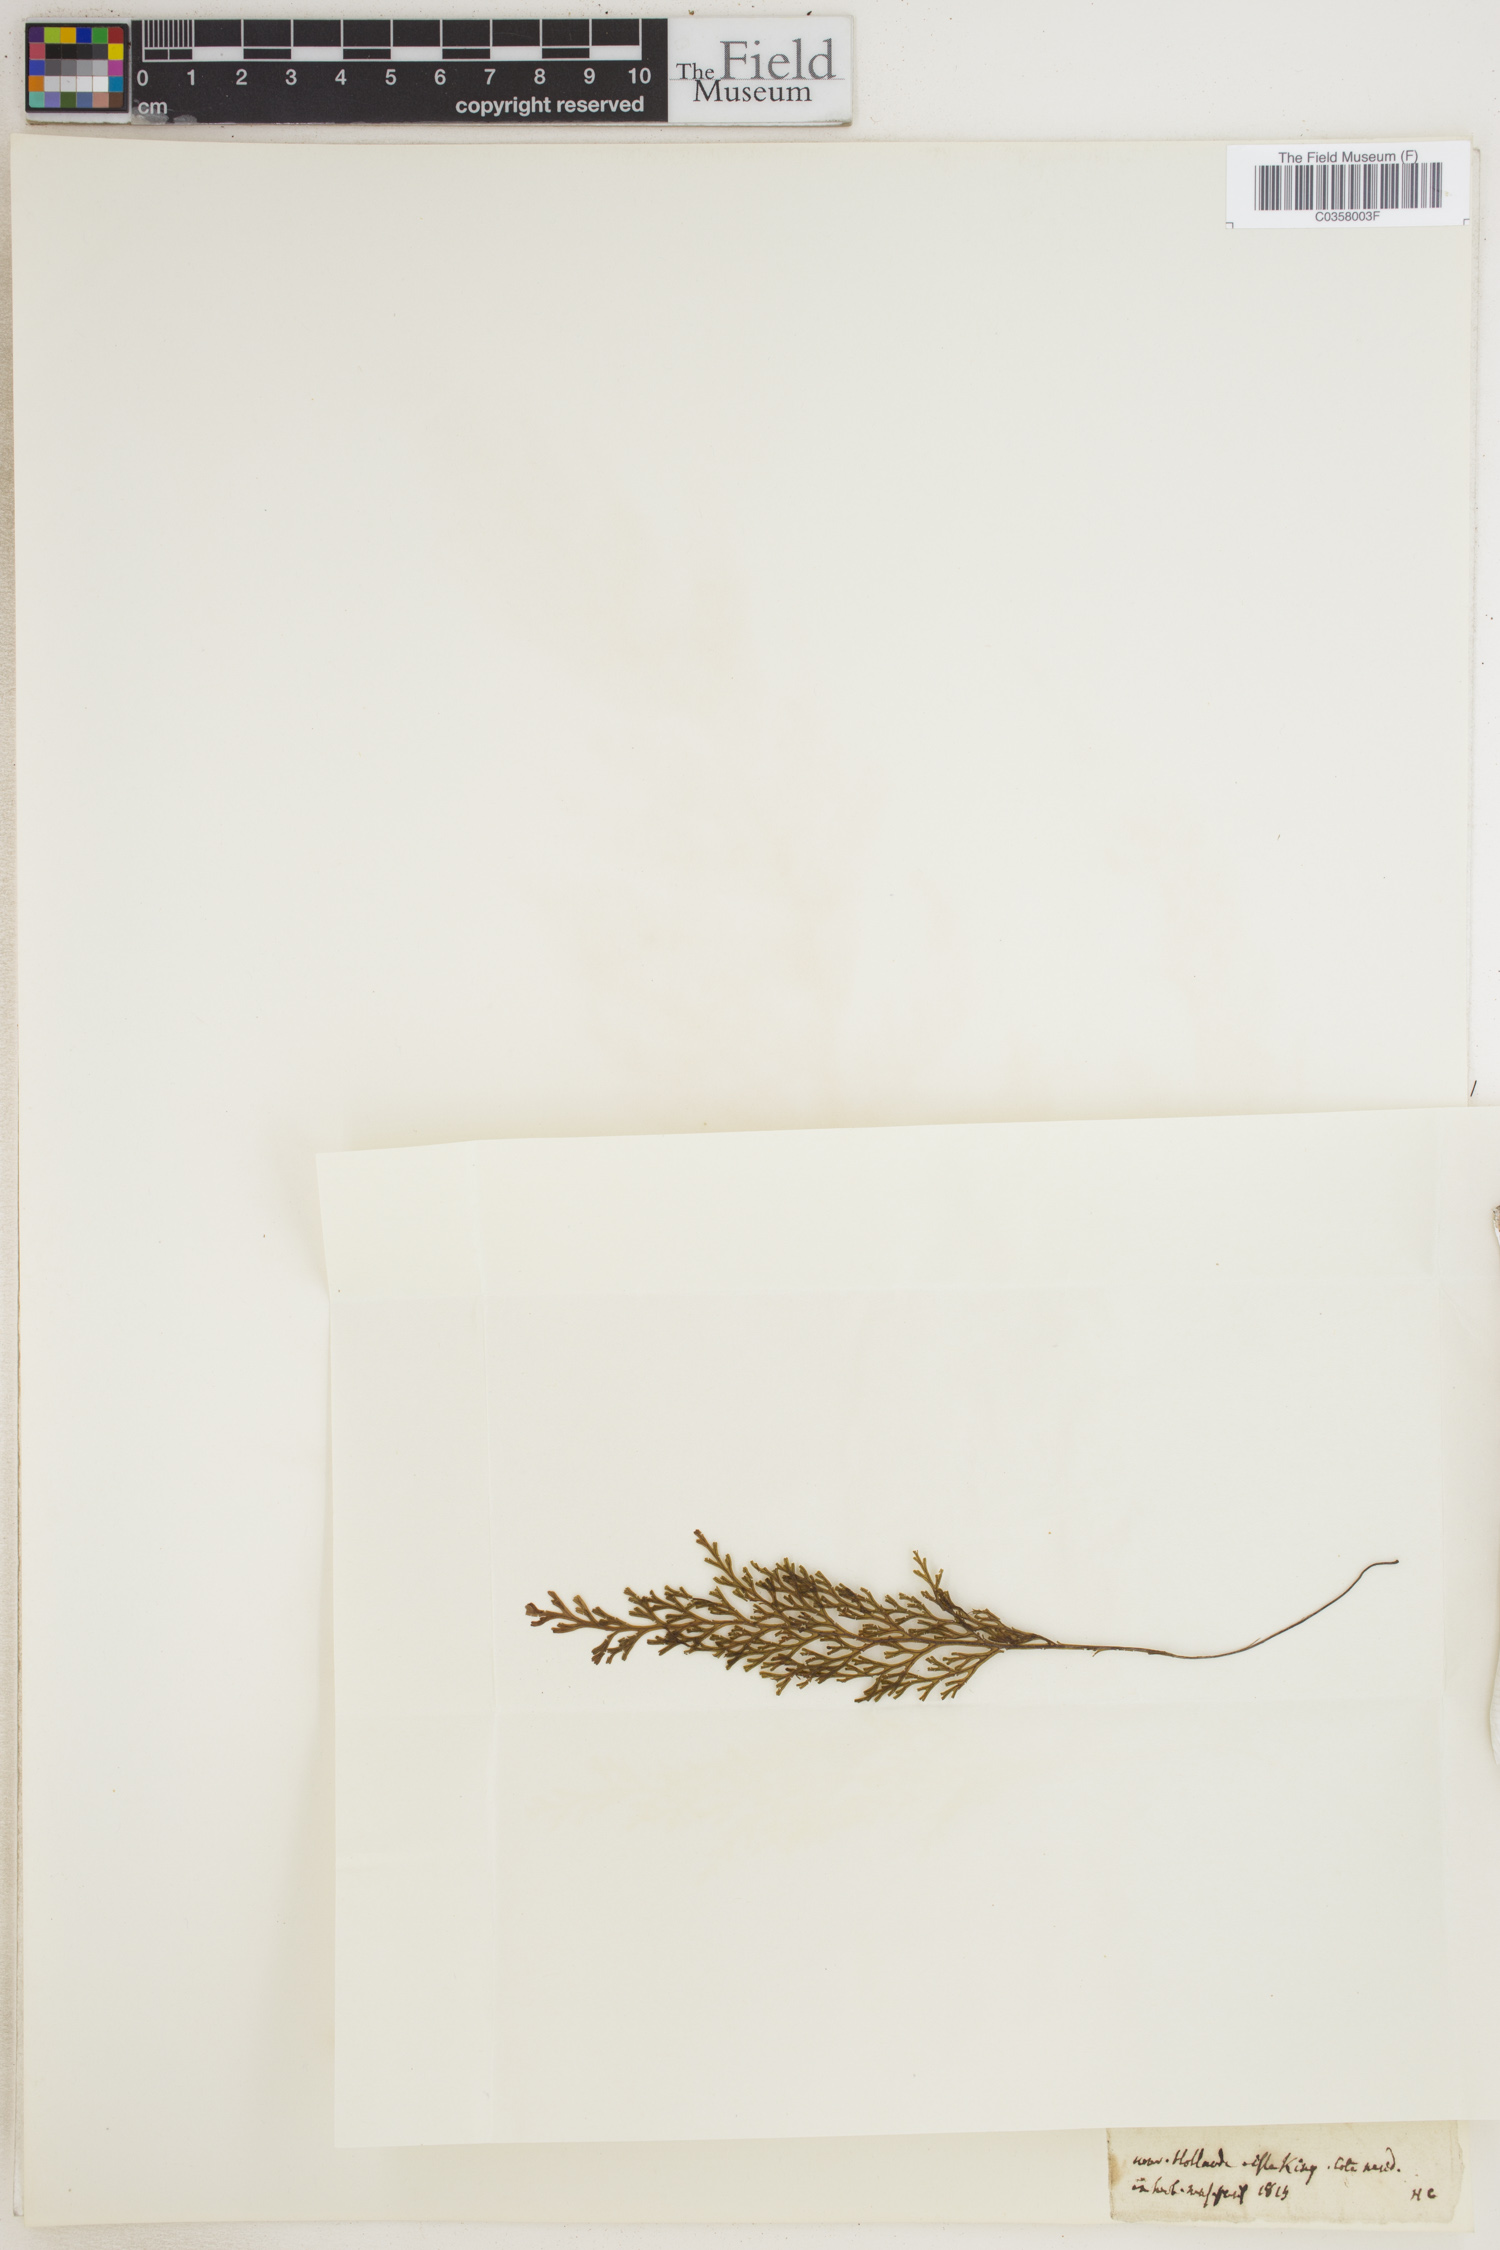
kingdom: Plantae
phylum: Tracheophyta
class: Polypodiopsida
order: Hymenophyllales
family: Hymenophyllaceae
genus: Hymenophyllum
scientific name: Hymenophyllum
